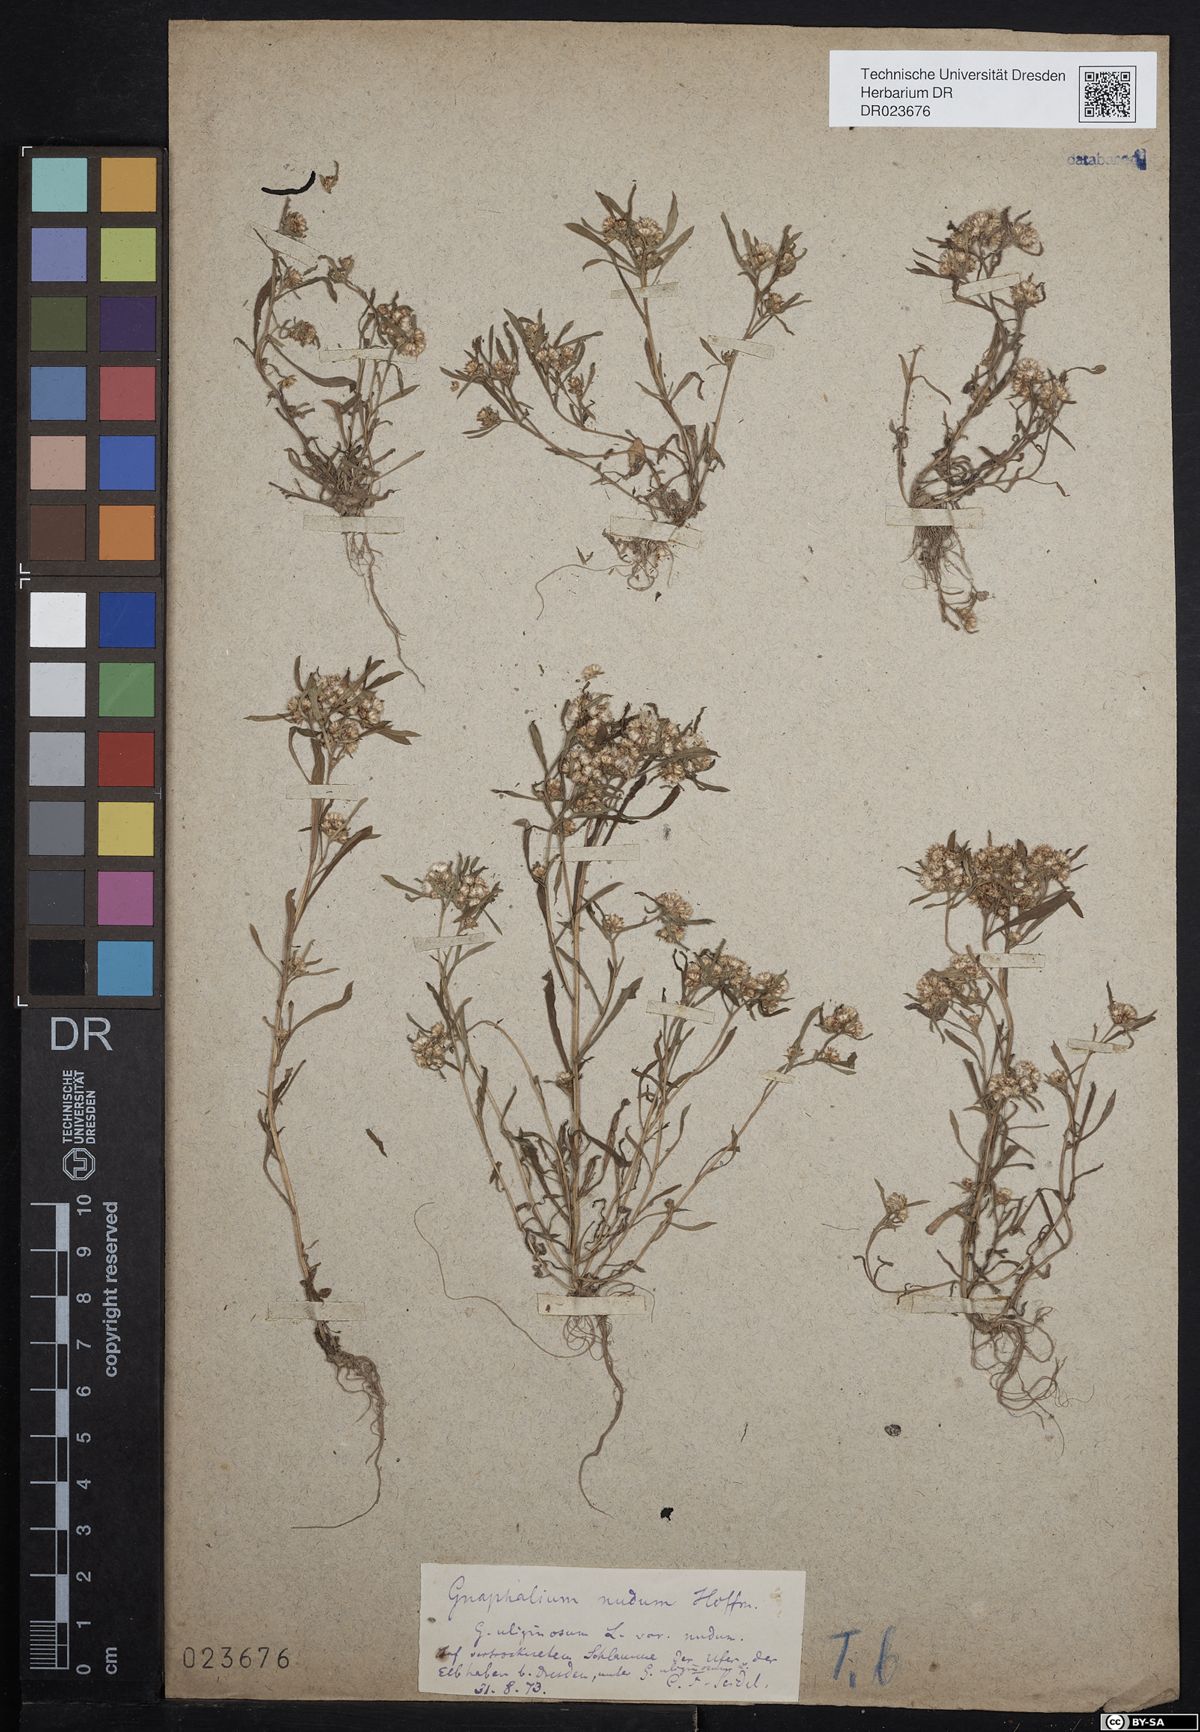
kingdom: Plantae
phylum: Tracheophyta
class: Magnoliopsida
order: Asterales
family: Asteraceae
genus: Gnaphalium
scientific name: Gnaphalium uliginosum
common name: Marsh cudweed
